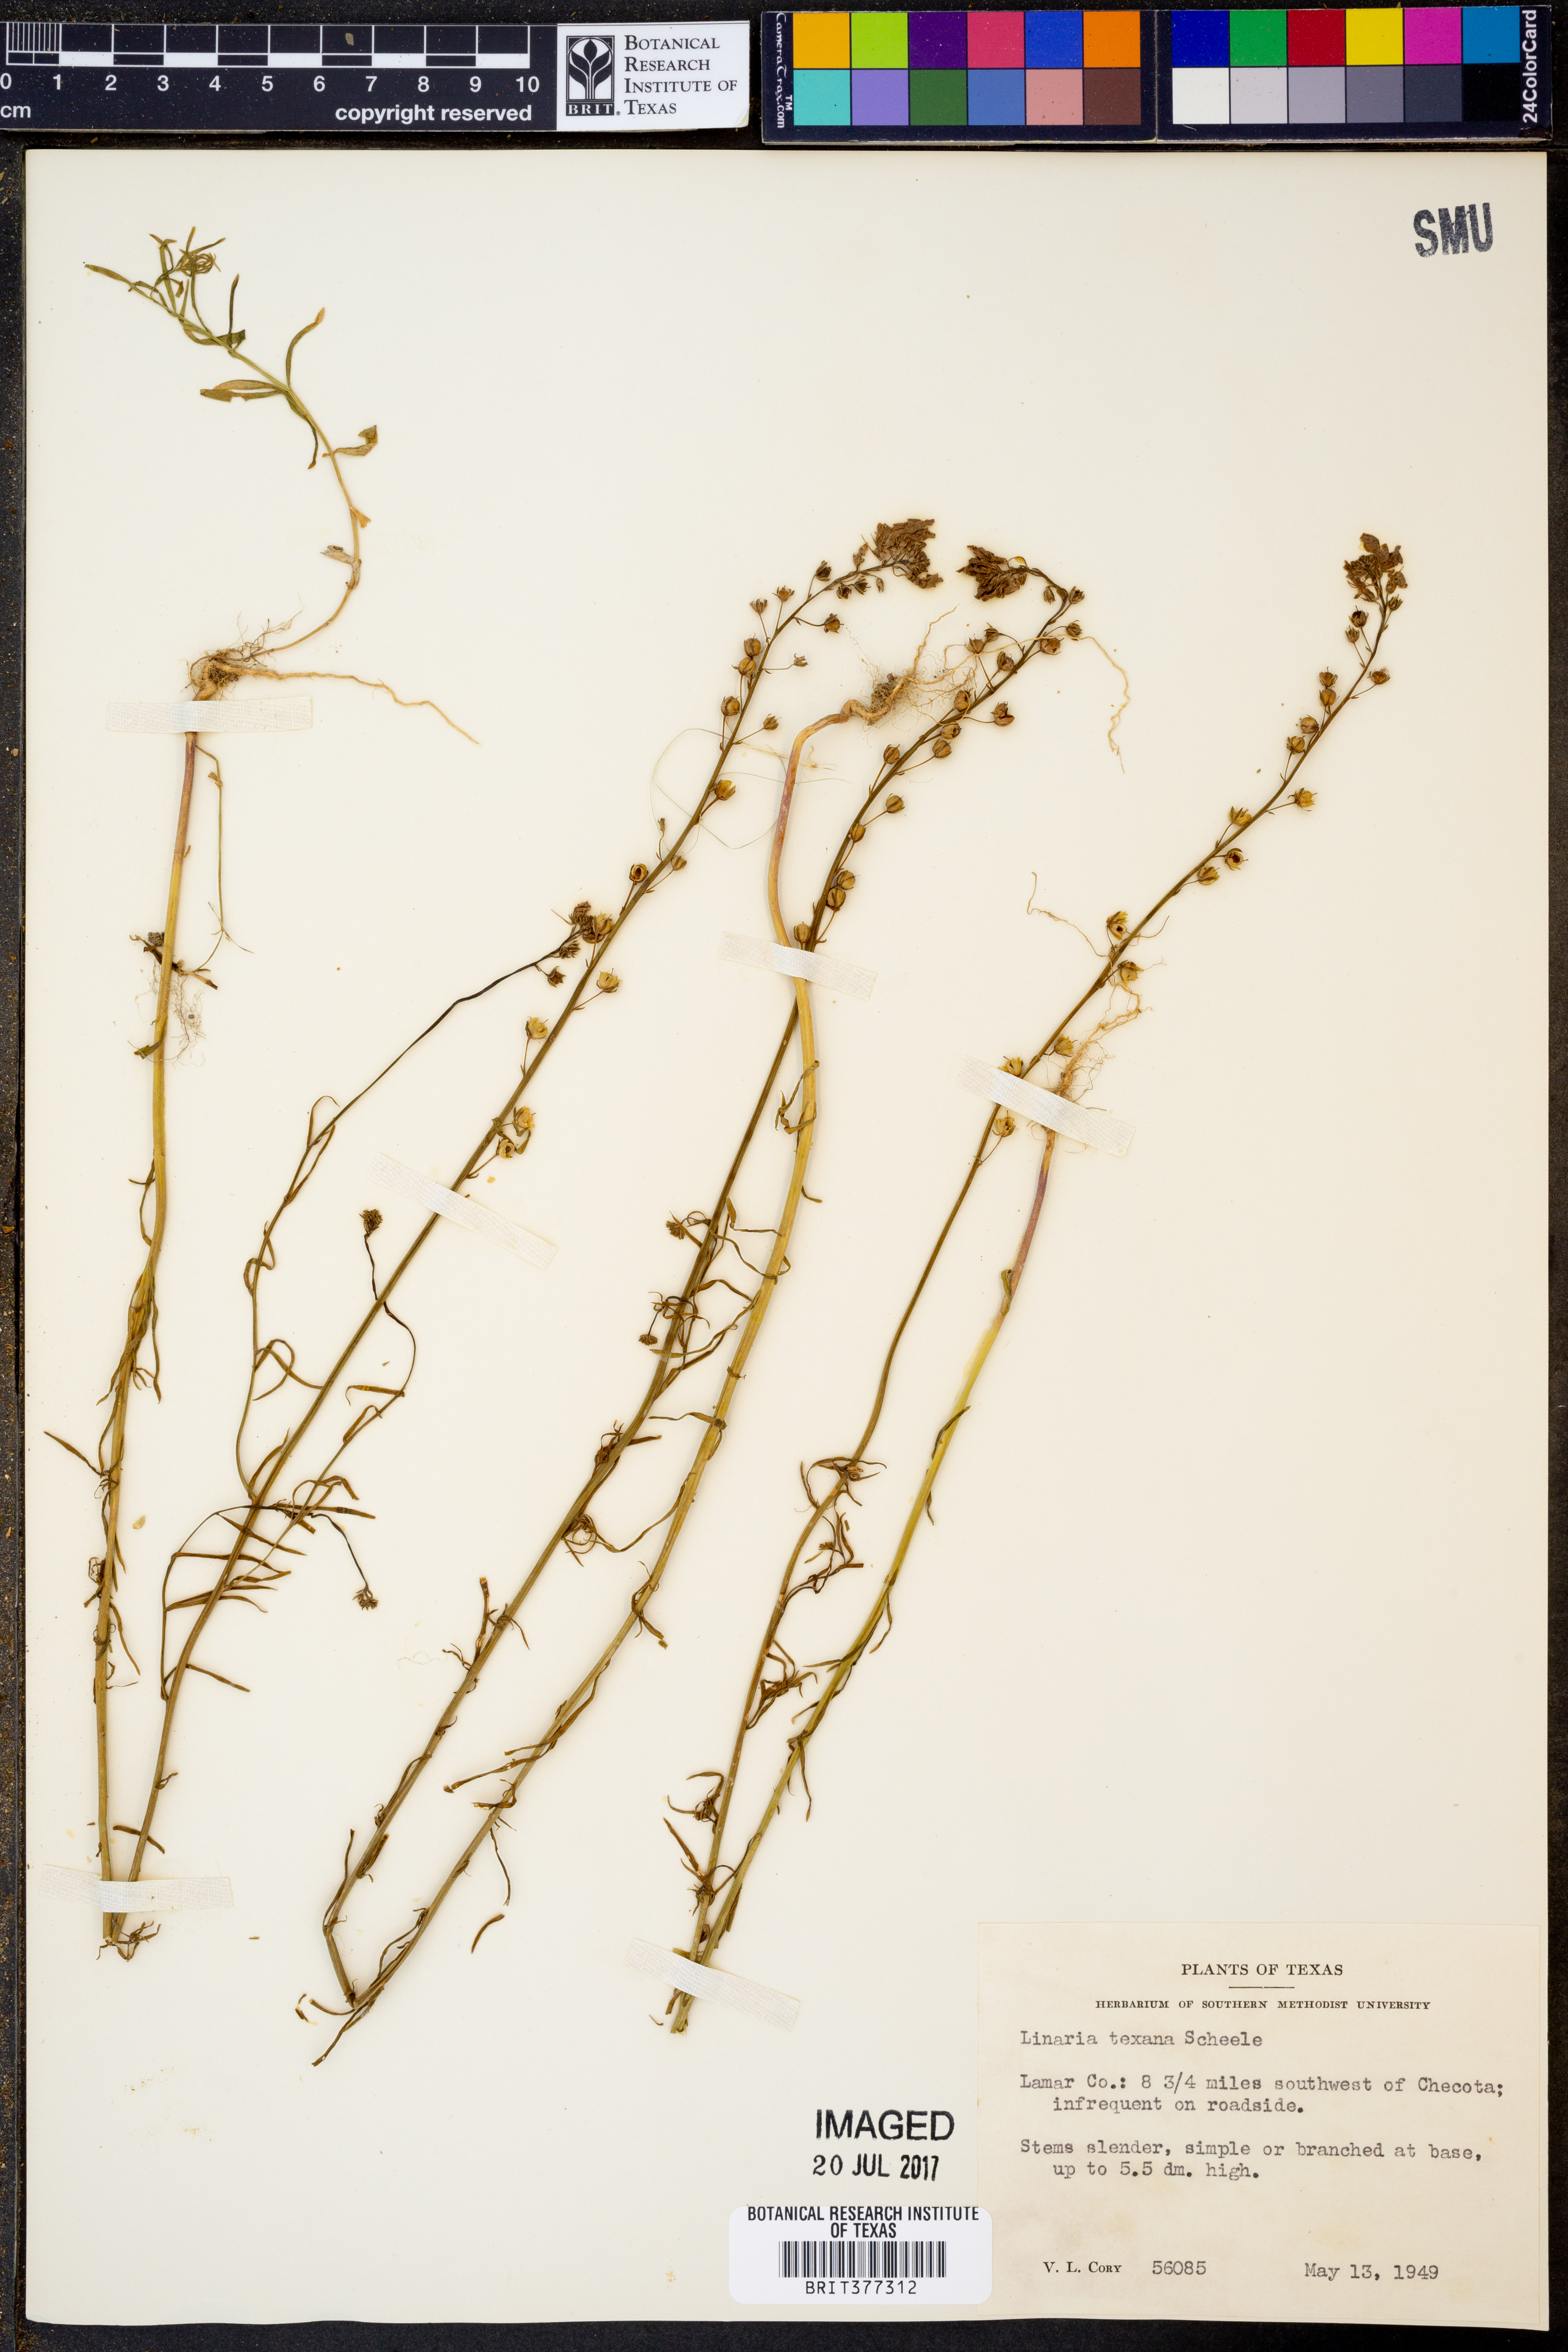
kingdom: Plantae
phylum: Tracheophyta
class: Magnoliopsida
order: Lamiales
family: Plantaginaceae
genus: Nuttallanthus
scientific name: Nuttallanthus texanus
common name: Texas toadflax
